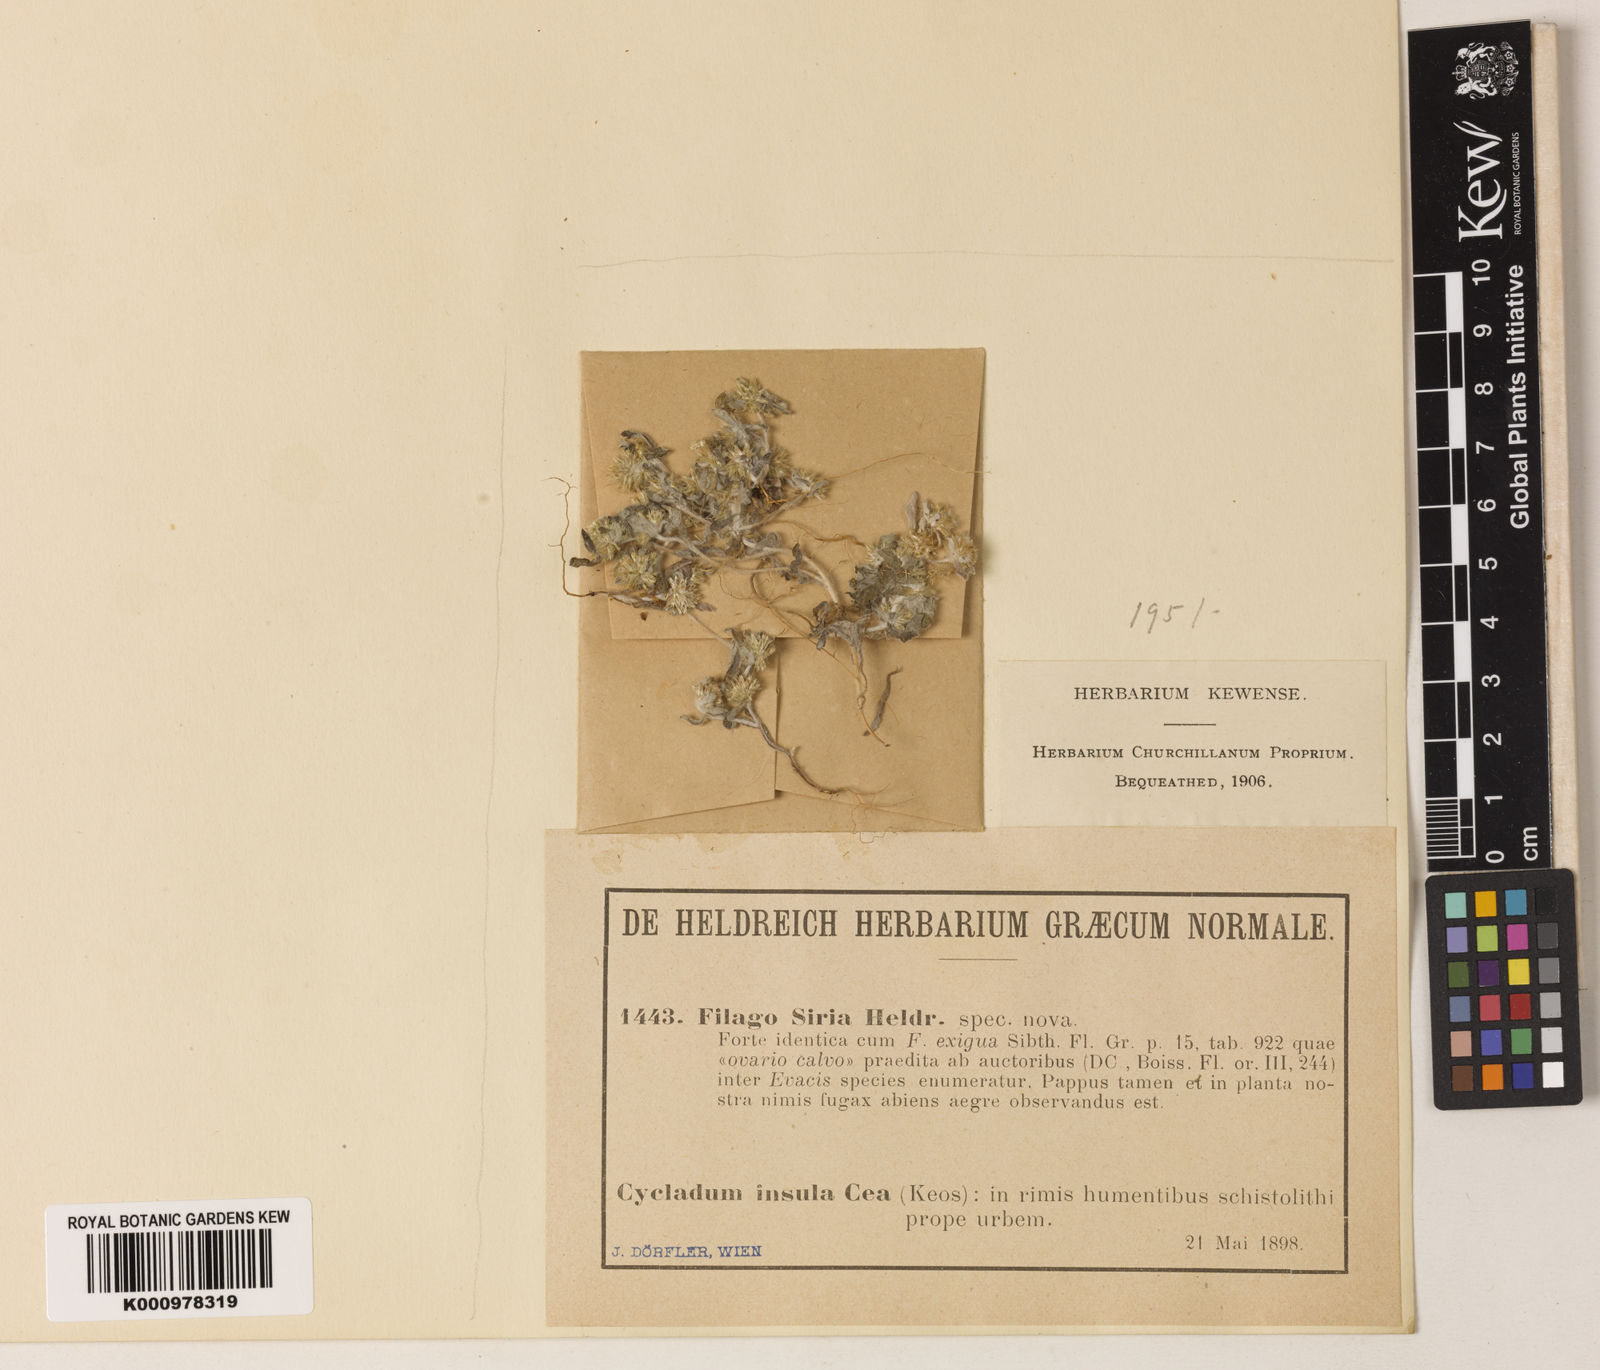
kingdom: Plantae
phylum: Tracheophyta
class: Magnoliopsida
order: Asterales
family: Asteraceae
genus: Filago
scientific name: Filago
